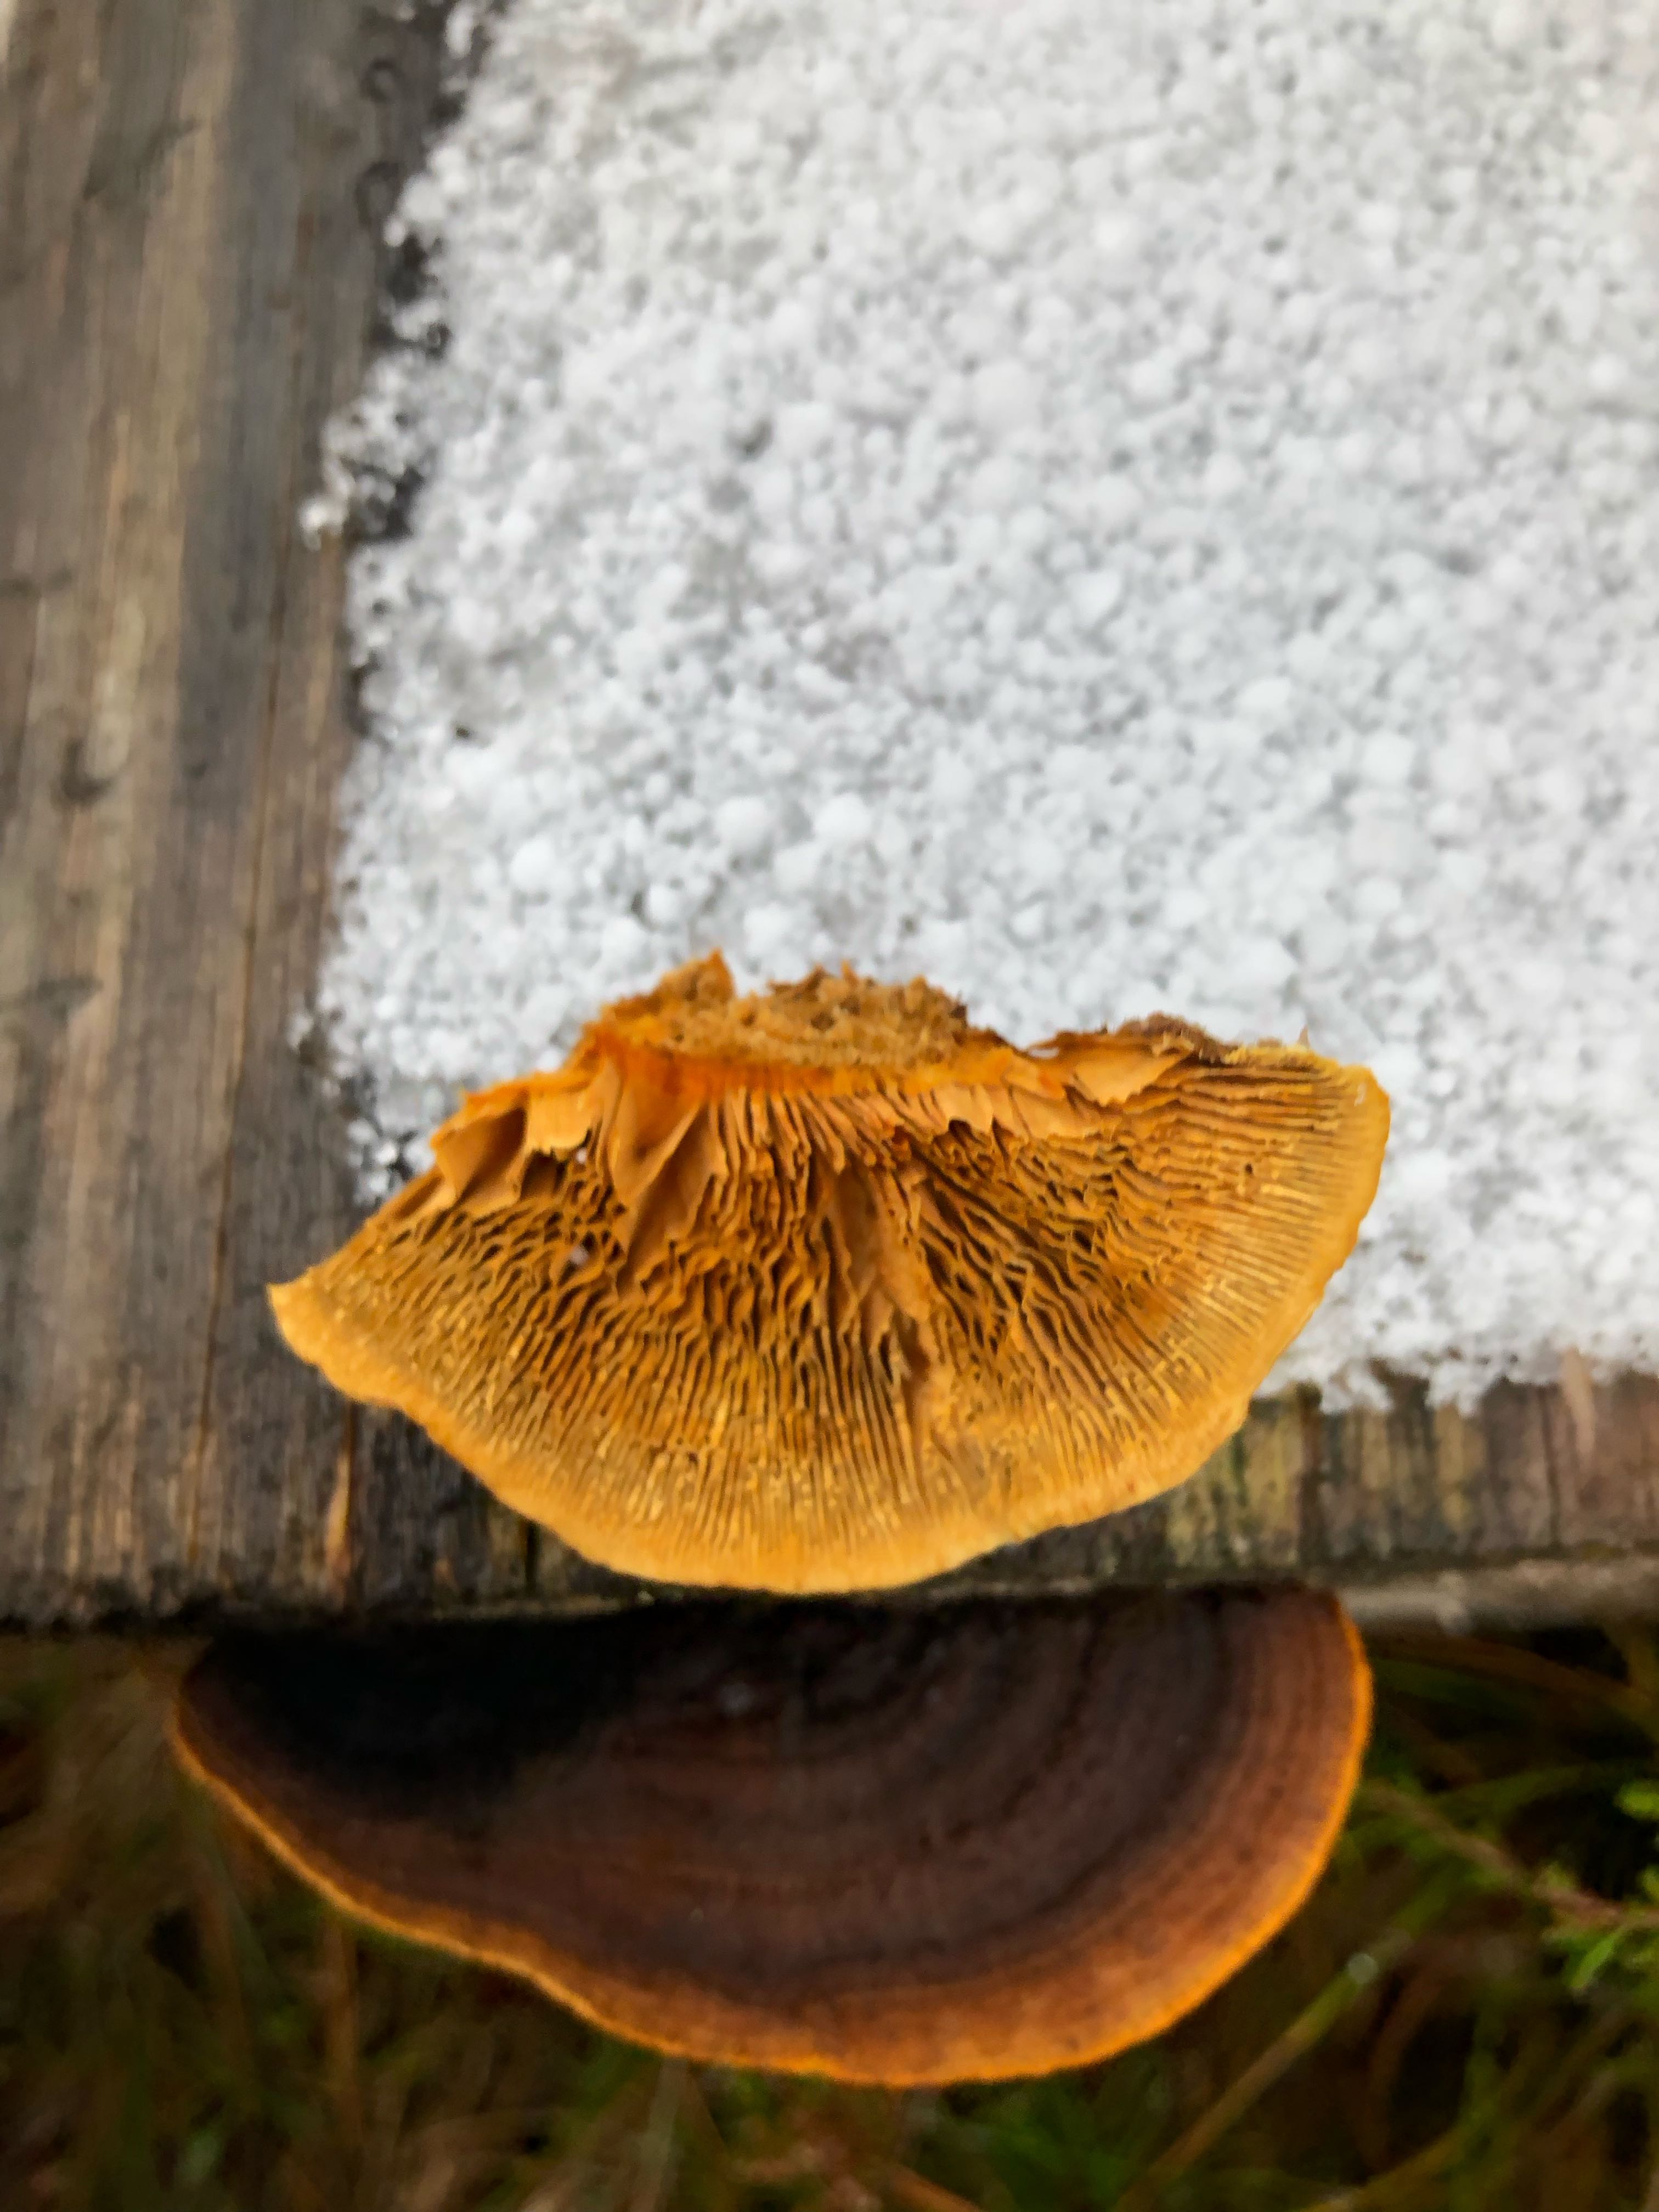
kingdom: Fungi
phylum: Basidiomycota
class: Agaricomycetes
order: Gloeophyllales
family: Gloeophyllaceae
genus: Gloeophyllum
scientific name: Gloeophyllum sepiarium
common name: fyrre-korkhat
